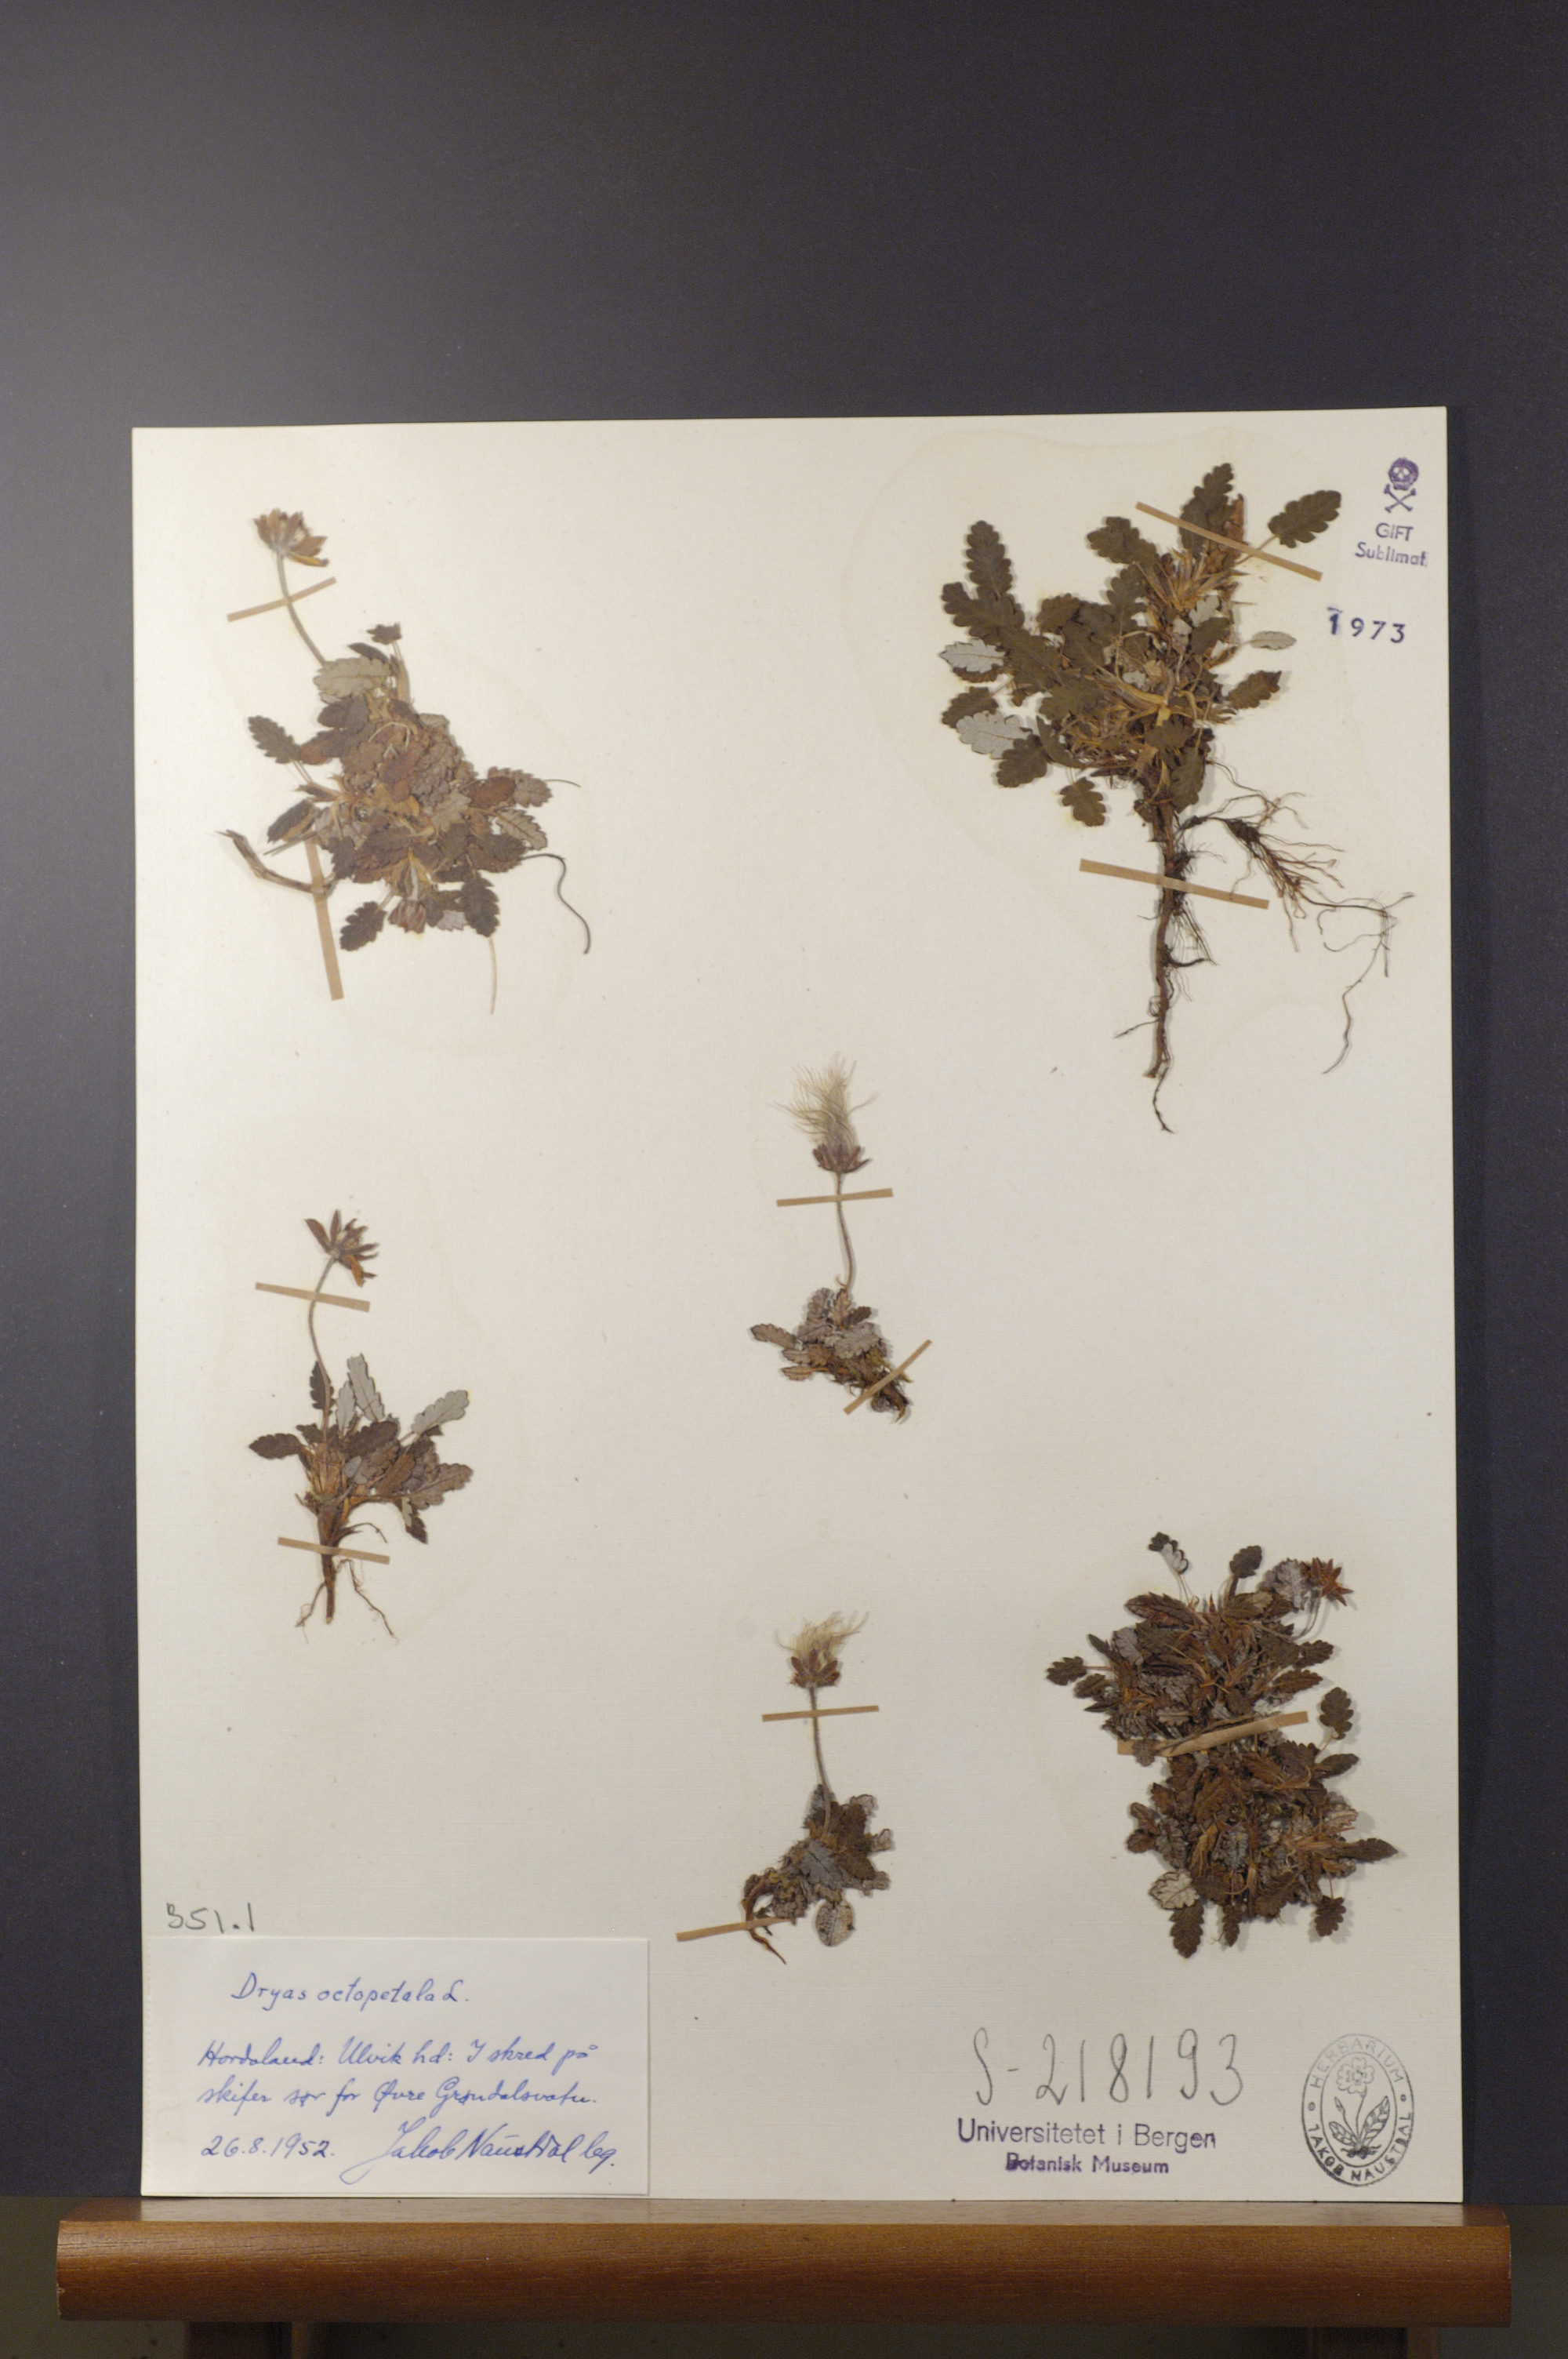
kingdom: Plantae
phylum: Tracheophyta
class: Magnoliopsida
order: Rosales
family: Rosaceae
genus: Dryas
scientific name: Dryas octopetala
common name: Eight-petal mountain-avens
